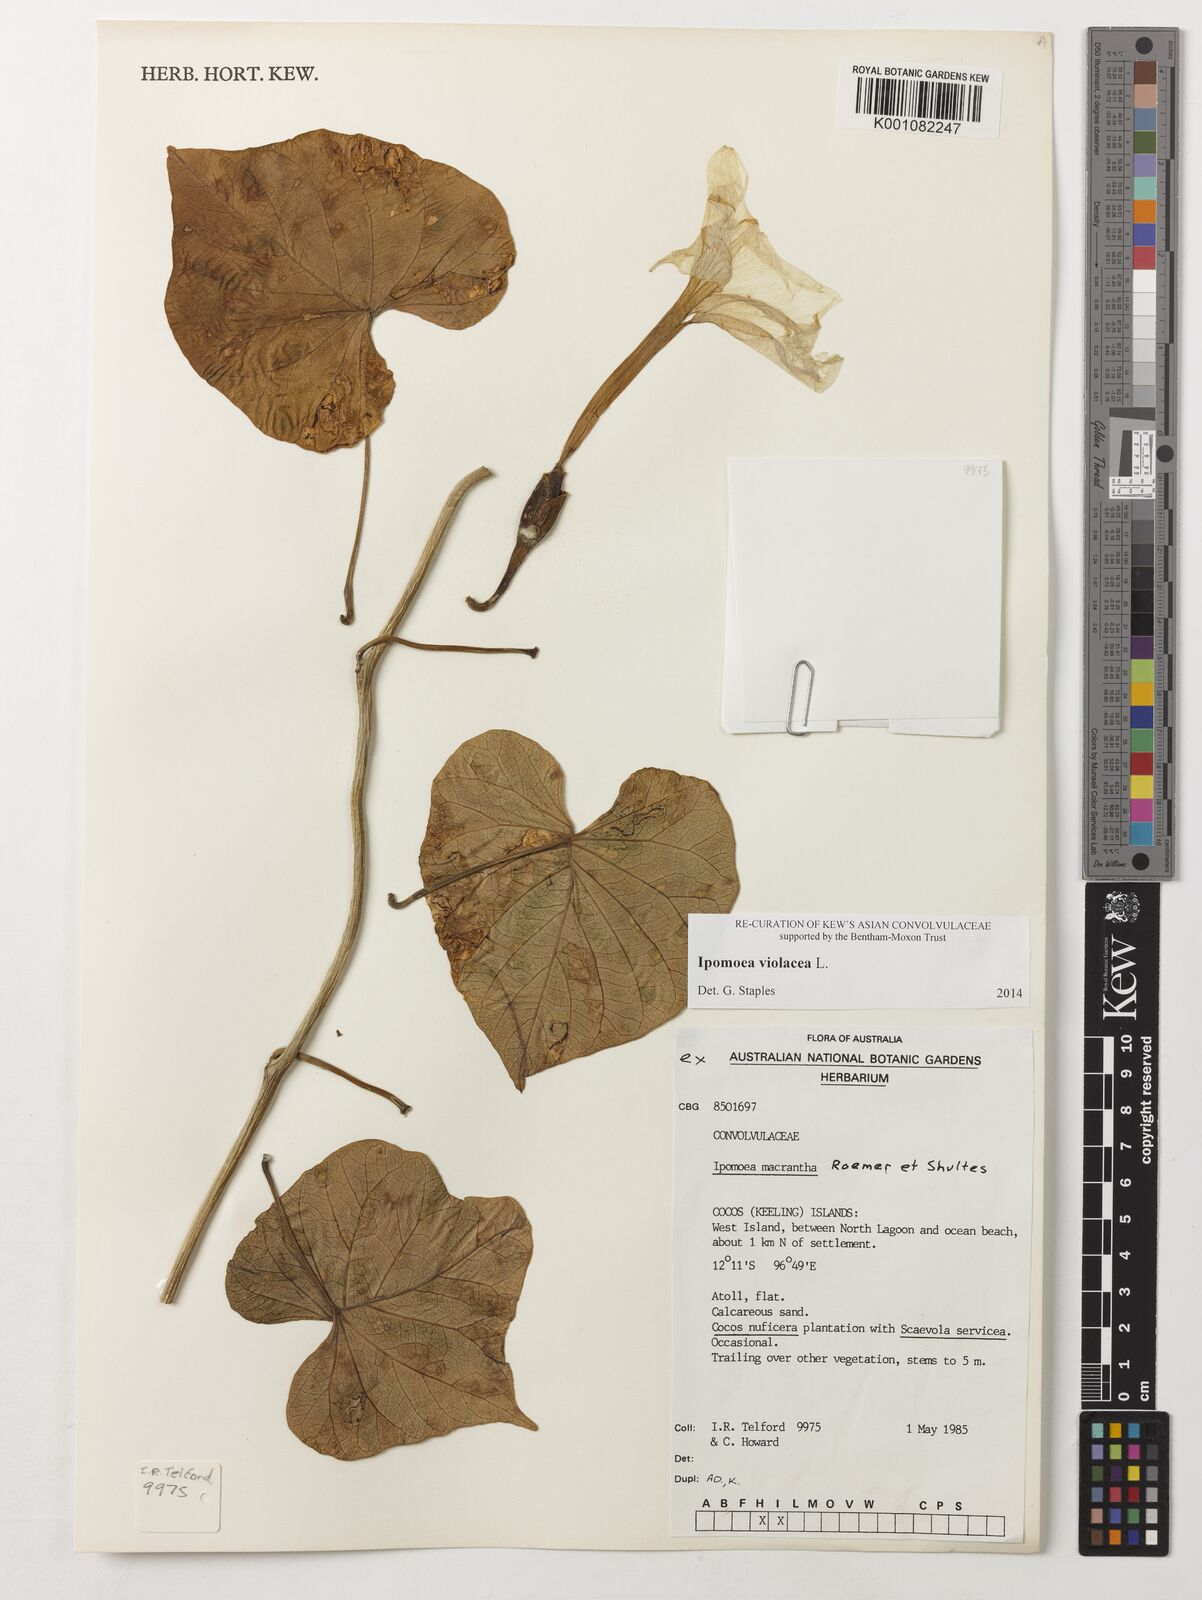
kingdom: Plantae
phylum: Tracheophyta
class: Magnoliopsida
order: Solanales
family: Convolvulaceae
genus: Ipomoea
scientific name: Ipomoea violacea
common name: Beach moonflower
